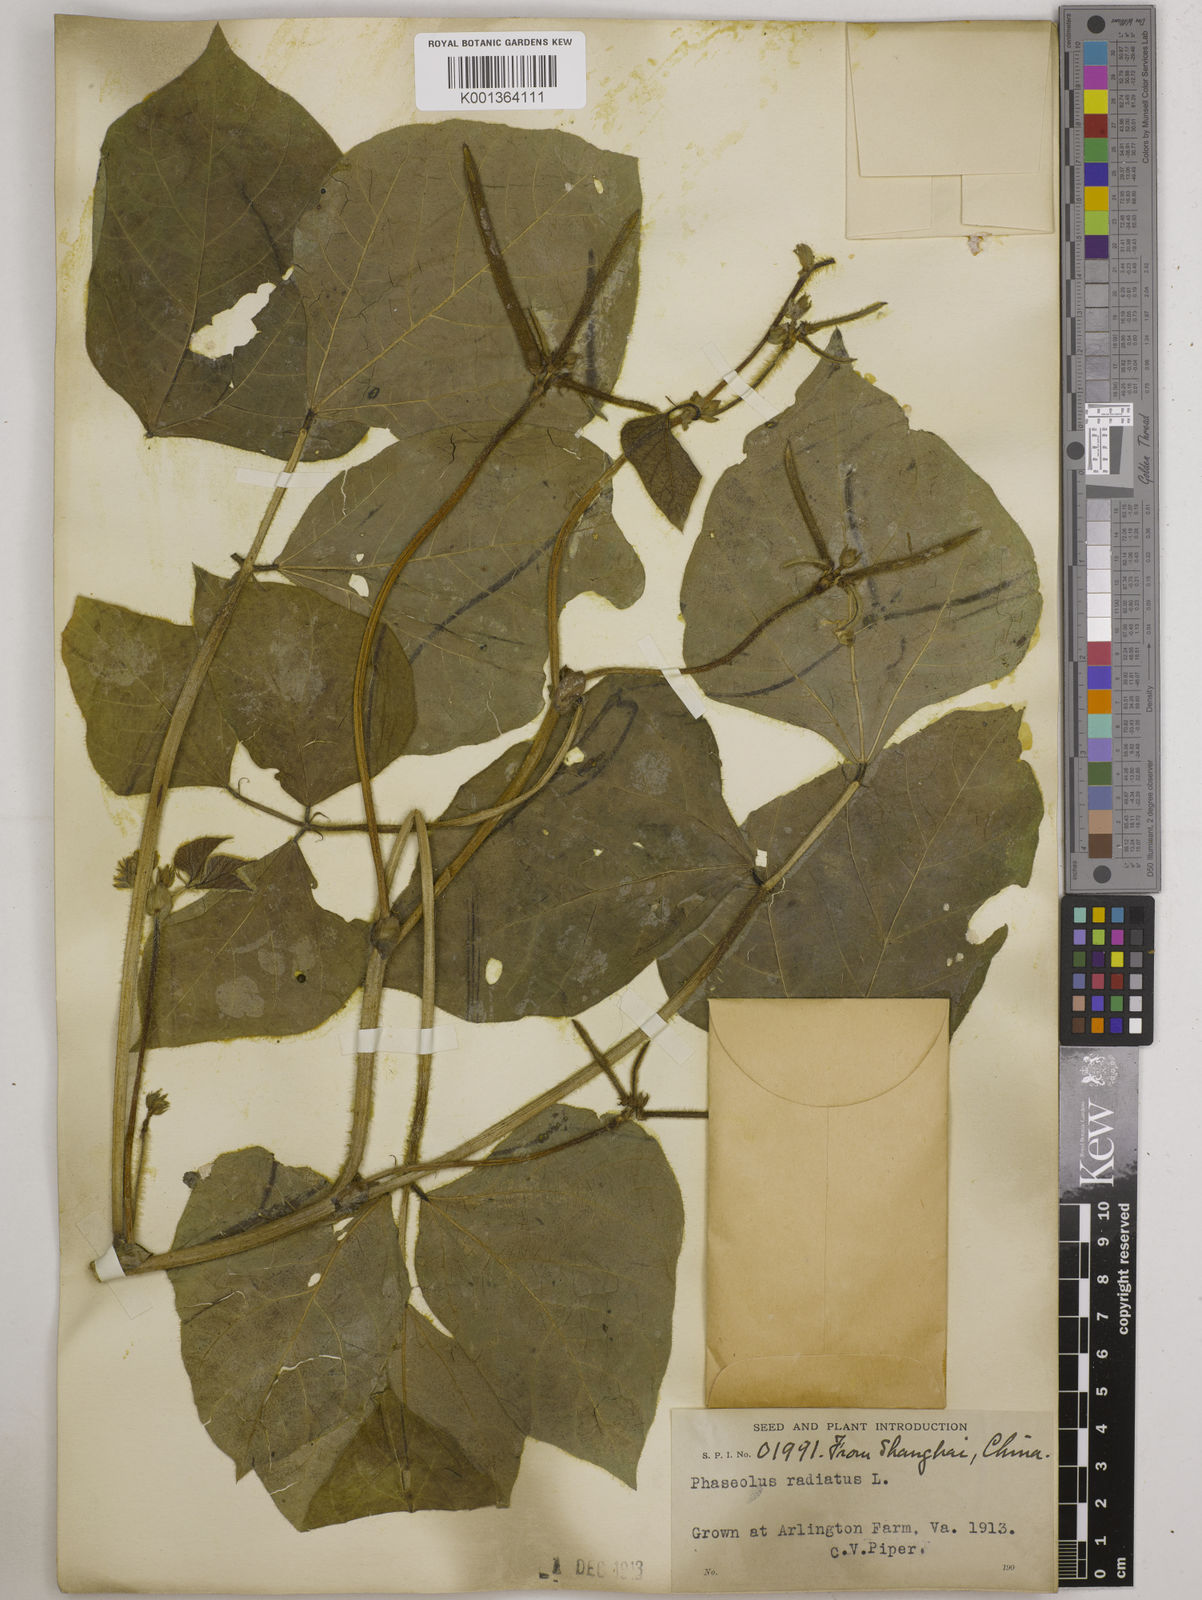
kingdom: Plantae
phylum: Tracheophyta
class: Magnoliopsida
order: Fabales
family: Fabaceae
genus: Vigna
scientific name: Vigna radiata
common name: Mung-bean
